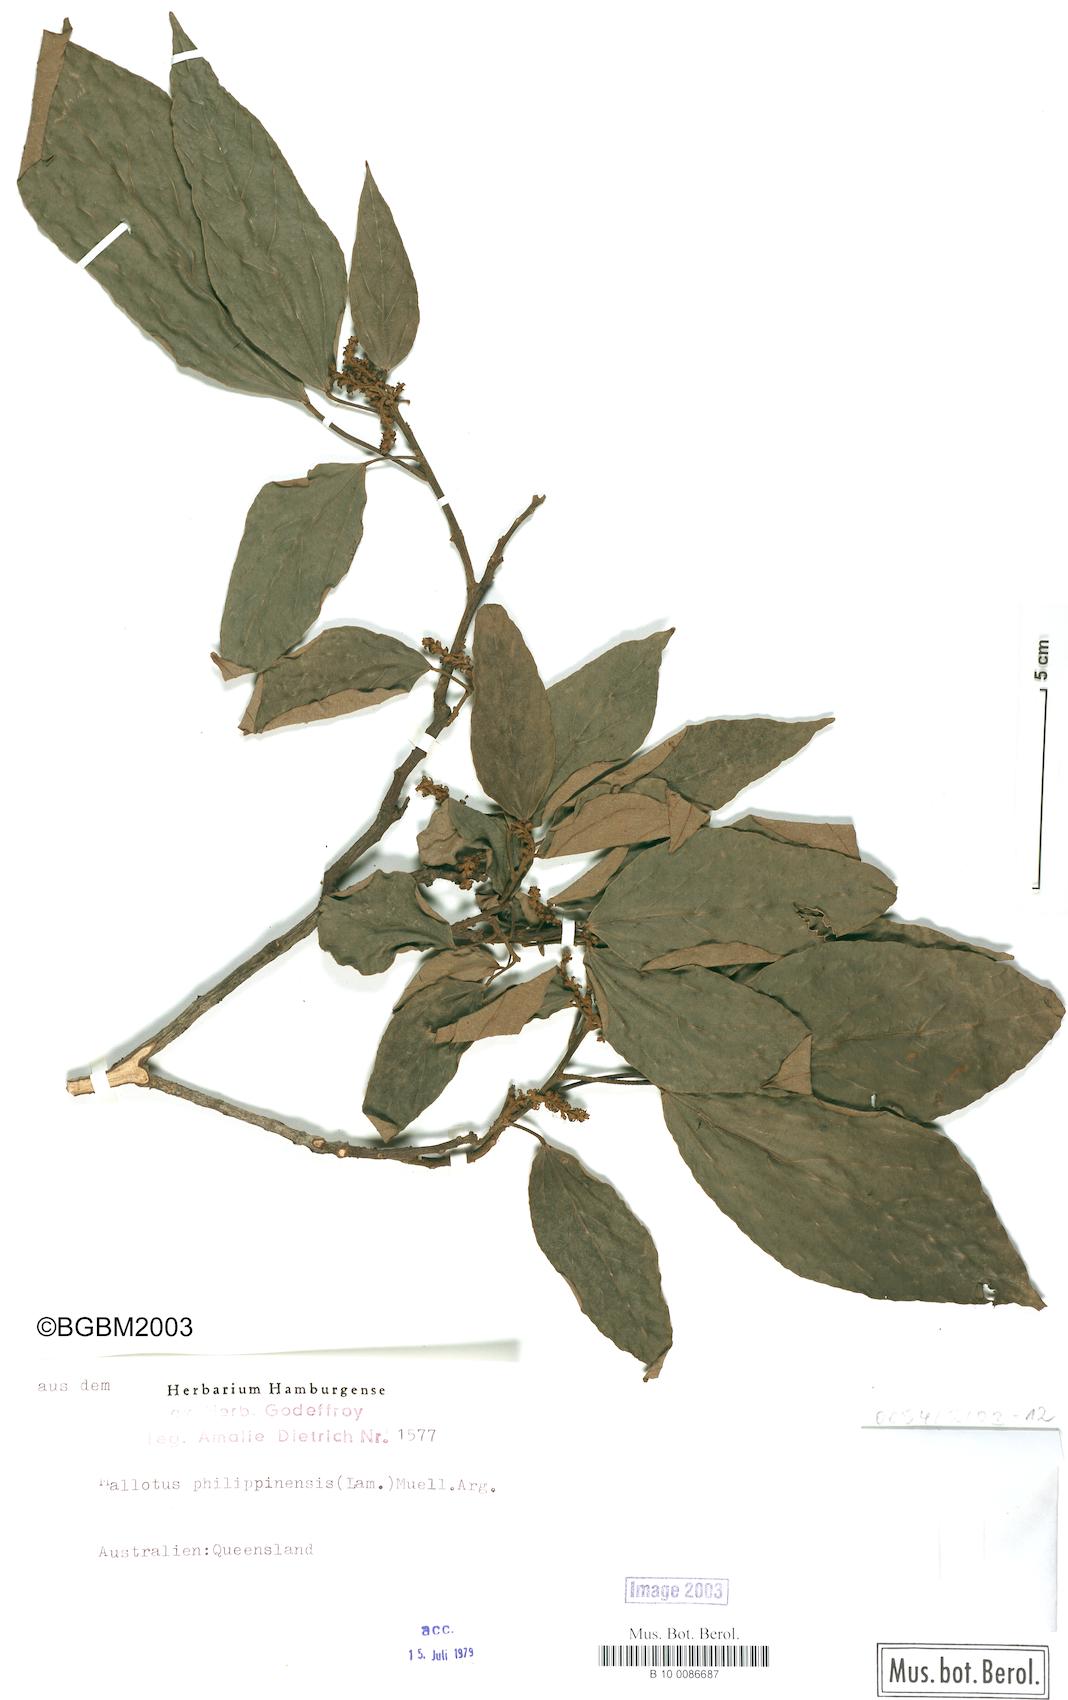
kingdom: Plantae
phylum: Tracheophyta
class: Magnoliopsida
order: Malpighiales
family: Euphorbiaceae
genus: Mallotus
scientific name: Mallotus philippensis
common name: Kamala tree
